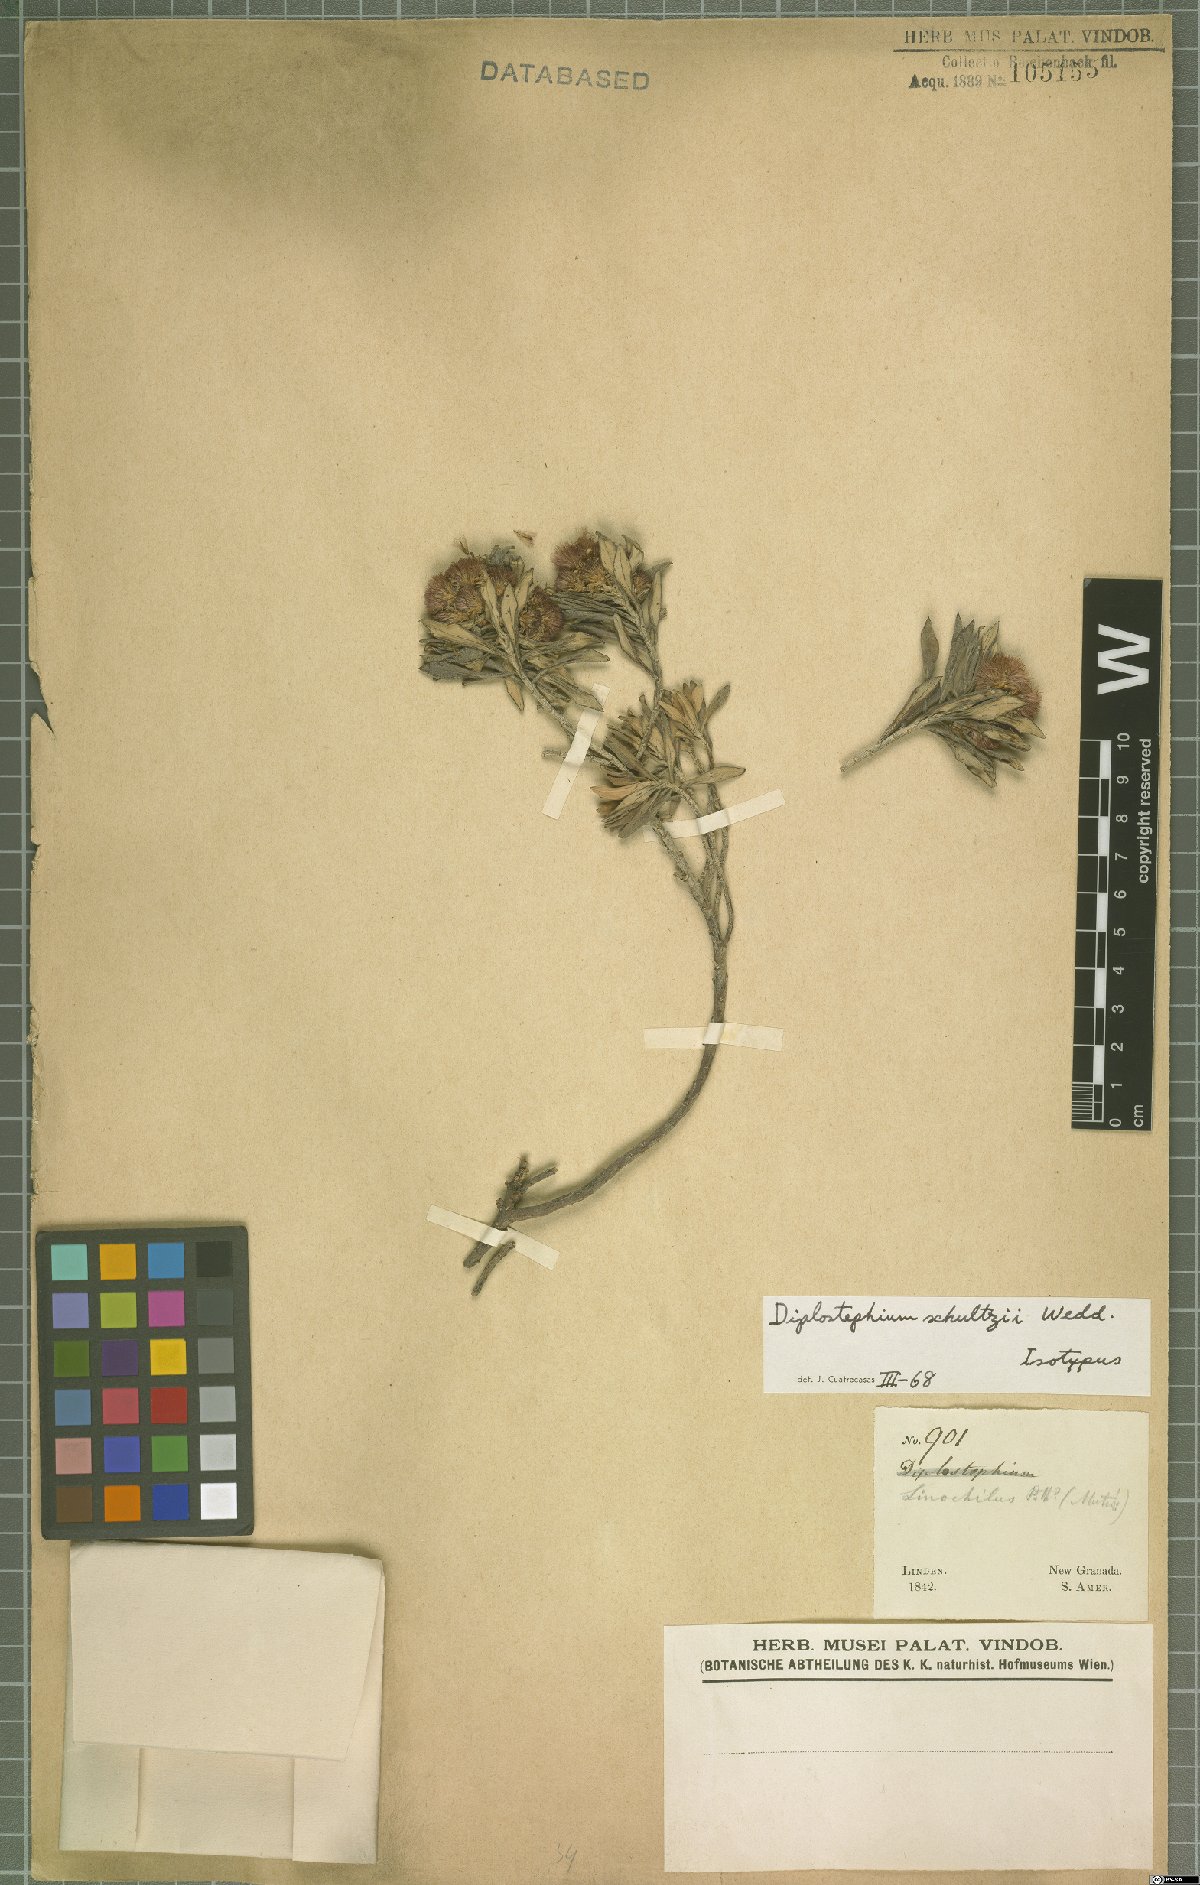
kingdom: Plantae
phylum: Tracheophyta
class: Magnoliopsida
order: Asterales
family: Asteraceae
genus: Linochilus
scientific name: Linochilus schultzii
